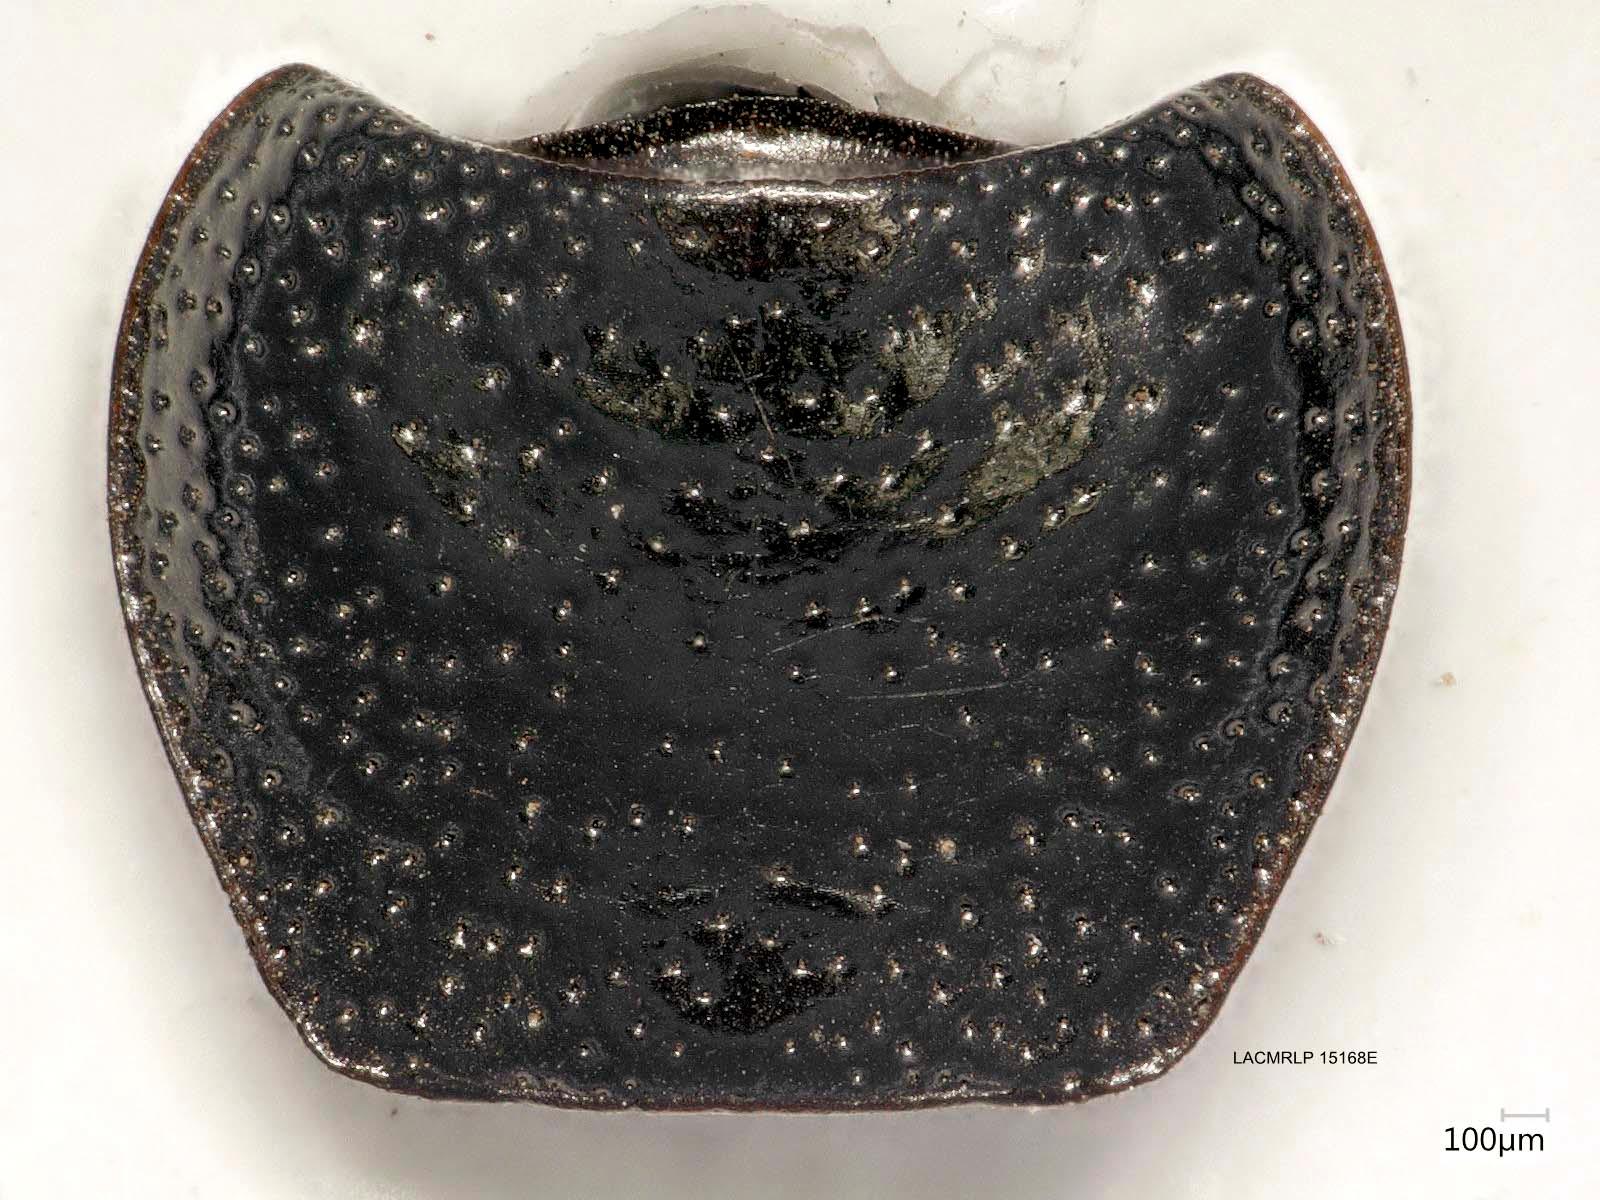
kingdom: Animalia
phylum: Arthropoda
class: Insecta
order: Coleoptera
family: Carabidae
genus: Dicheirus
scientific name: Dicheirus dilatatus
